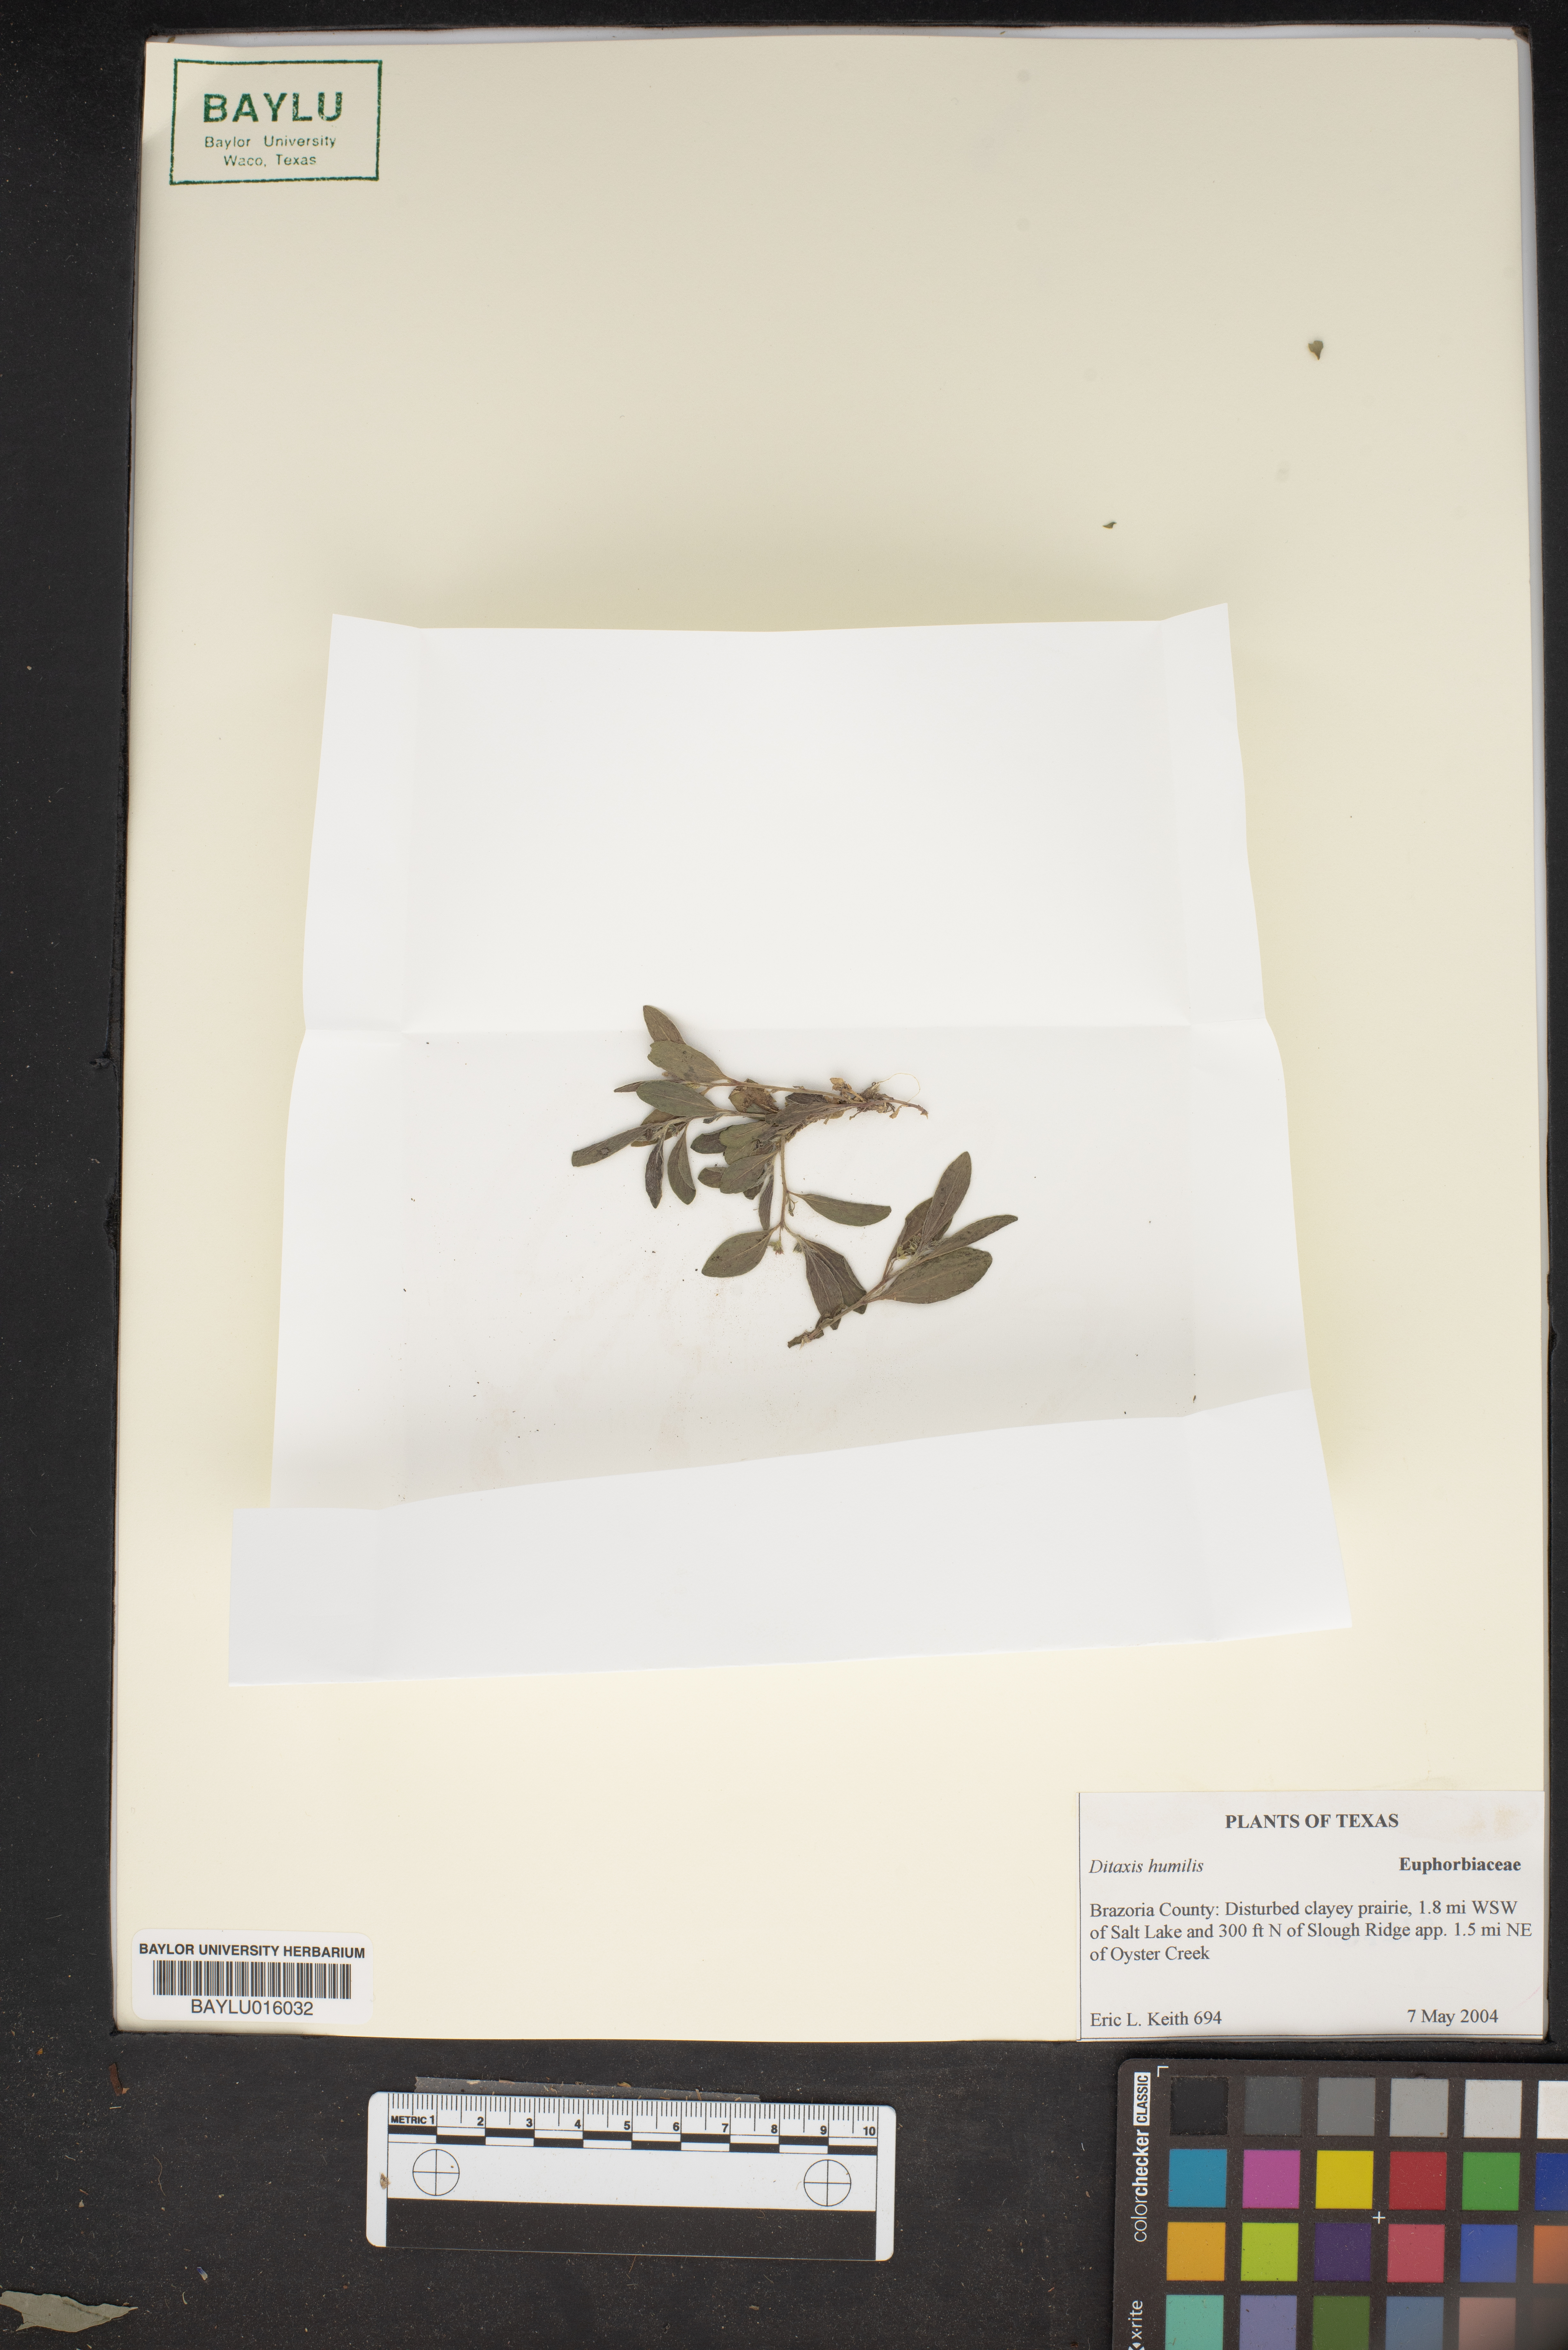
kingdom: Plantae
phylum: Tracheophyta
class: Magnoliopsida
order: Malpighiales
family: Euphorbiaceae
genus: Ditaxis
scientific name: Ditaxis humilis
